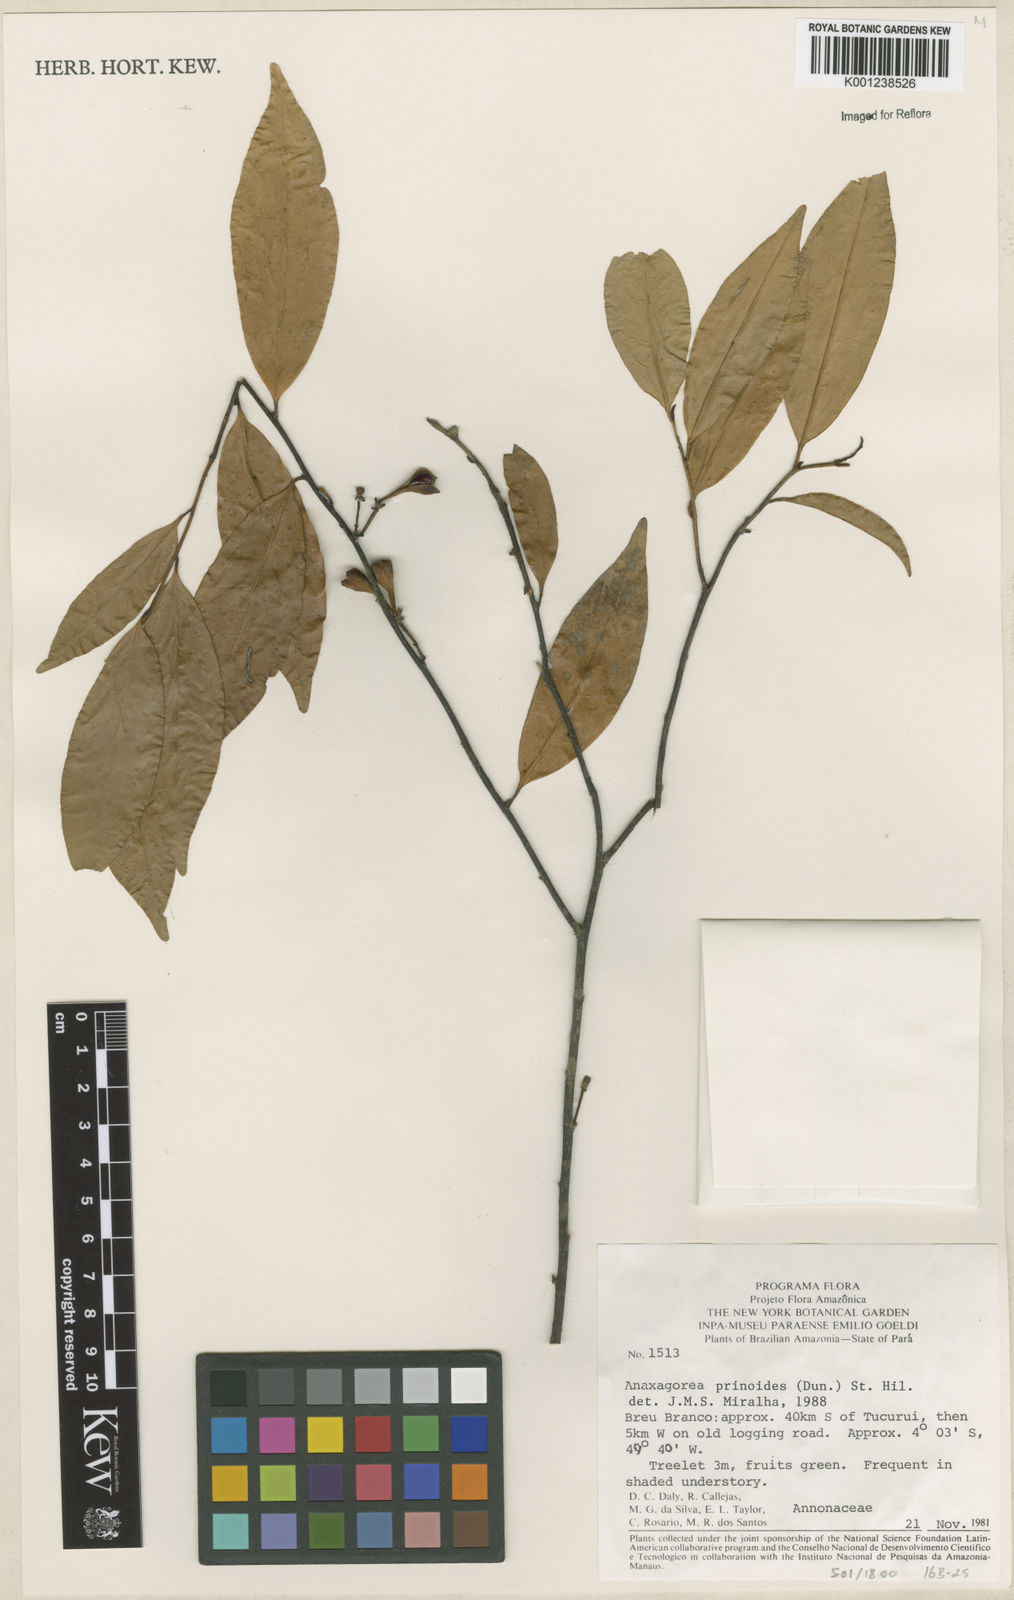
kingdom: Plantae
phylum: Tracheophyta
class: Magnoliopsida
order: Magnoliales
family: Annonaceae
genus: Anaxagorea
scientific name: Anaxagorea prinoides
